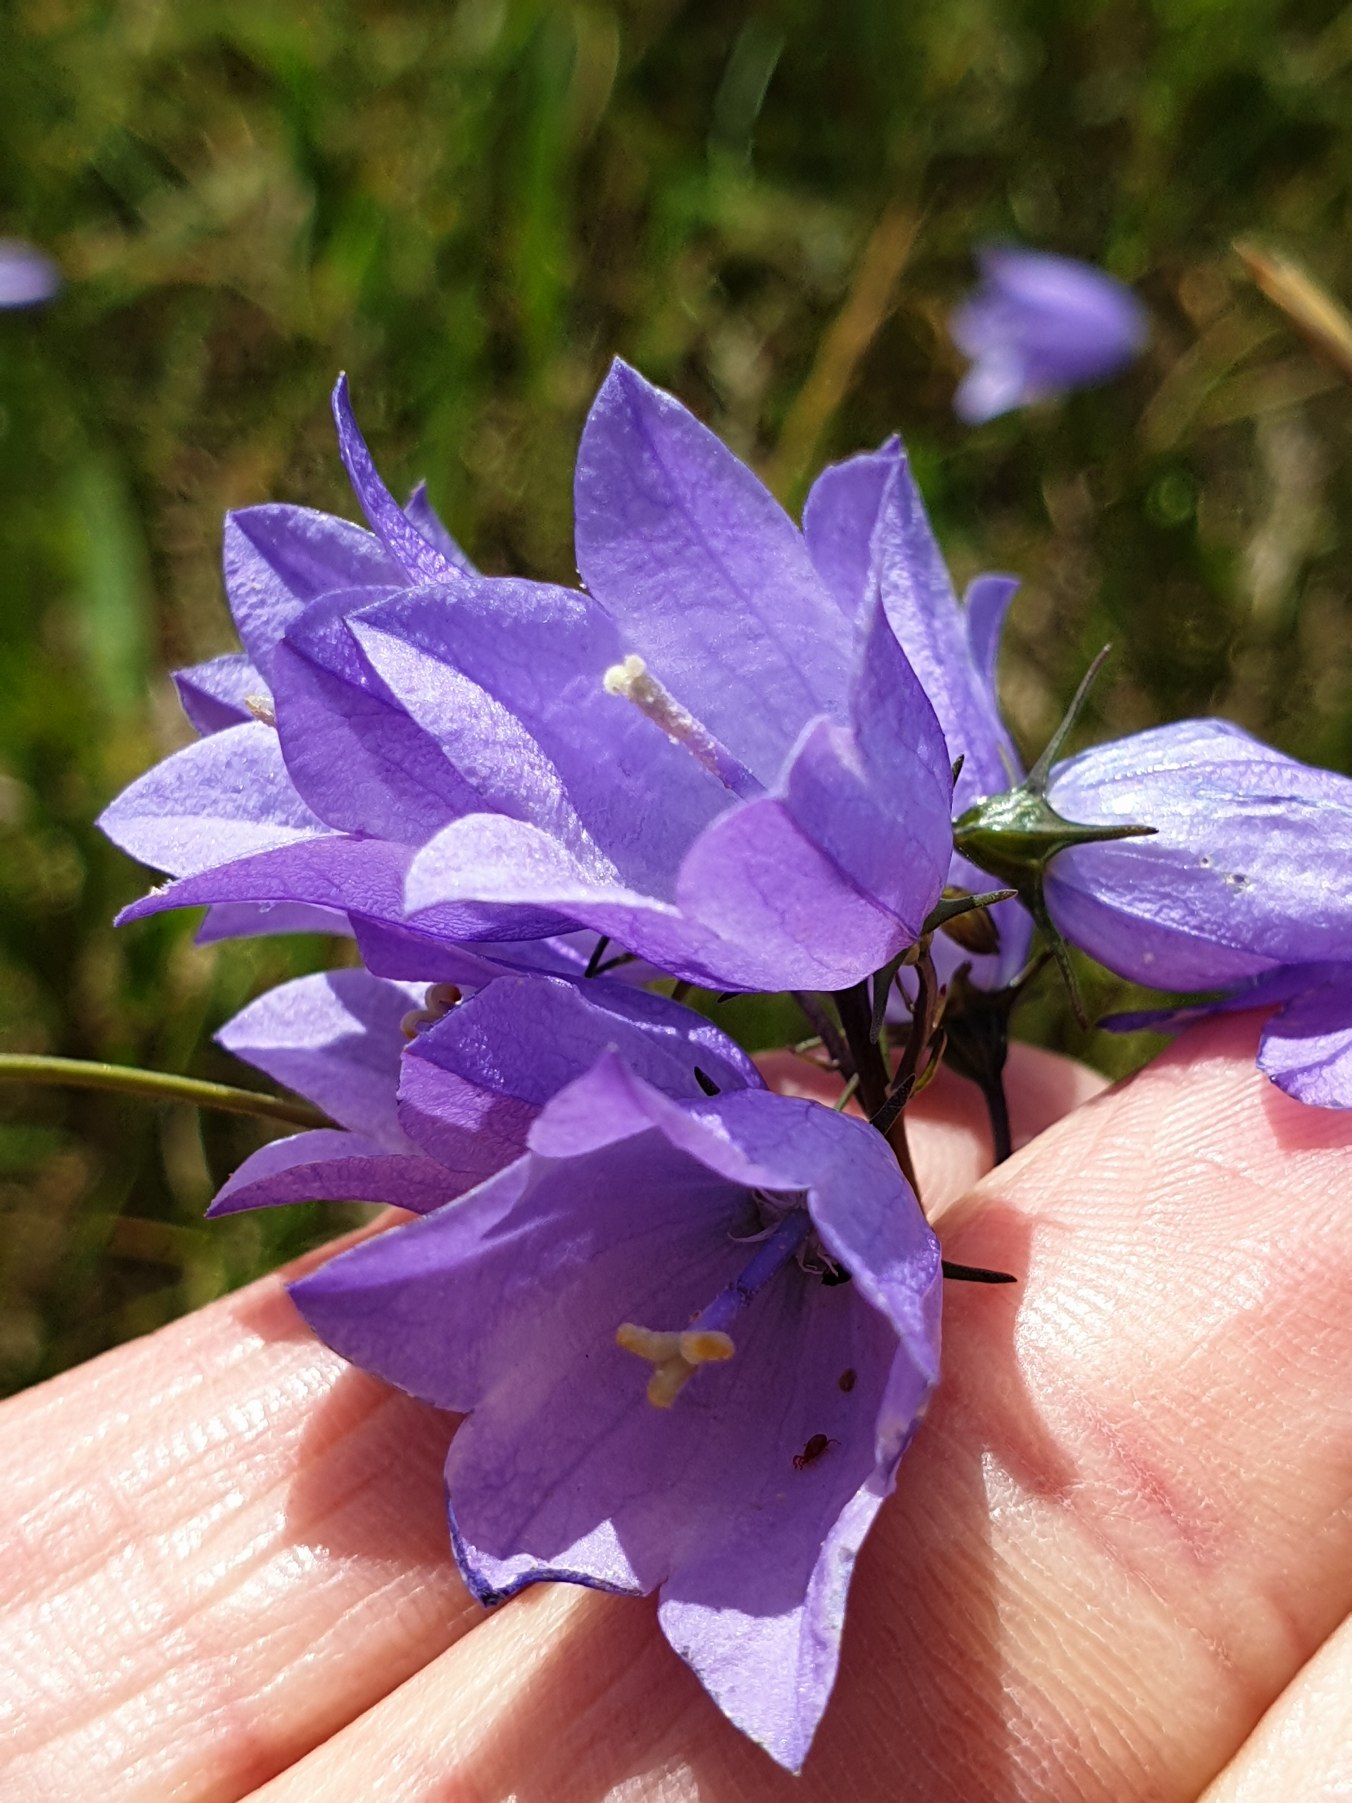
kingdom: Plantae
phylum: Tracheophyta
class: Magnoliopsida
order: Asterales
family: Campanulaceae
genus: Campanula
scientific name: Campanula rotundifolia
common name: Liden klokke
